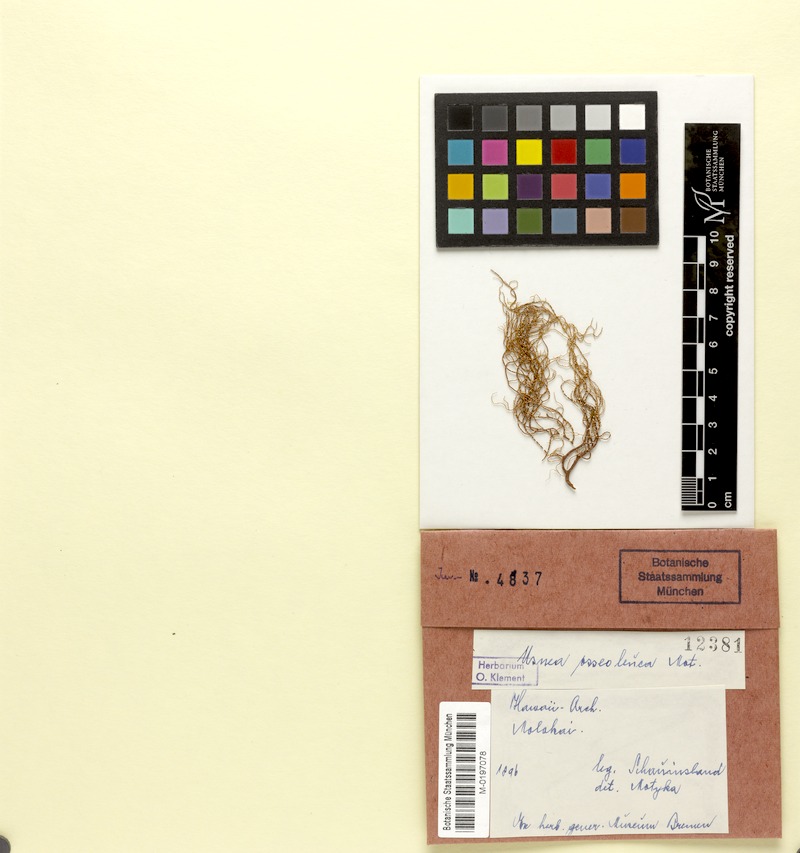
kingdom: Fungi
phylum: Ascomycota
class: Lecanoromycetes
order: Lecanorales
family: Parmeliaceae
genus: Usnea
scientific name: Usnea
